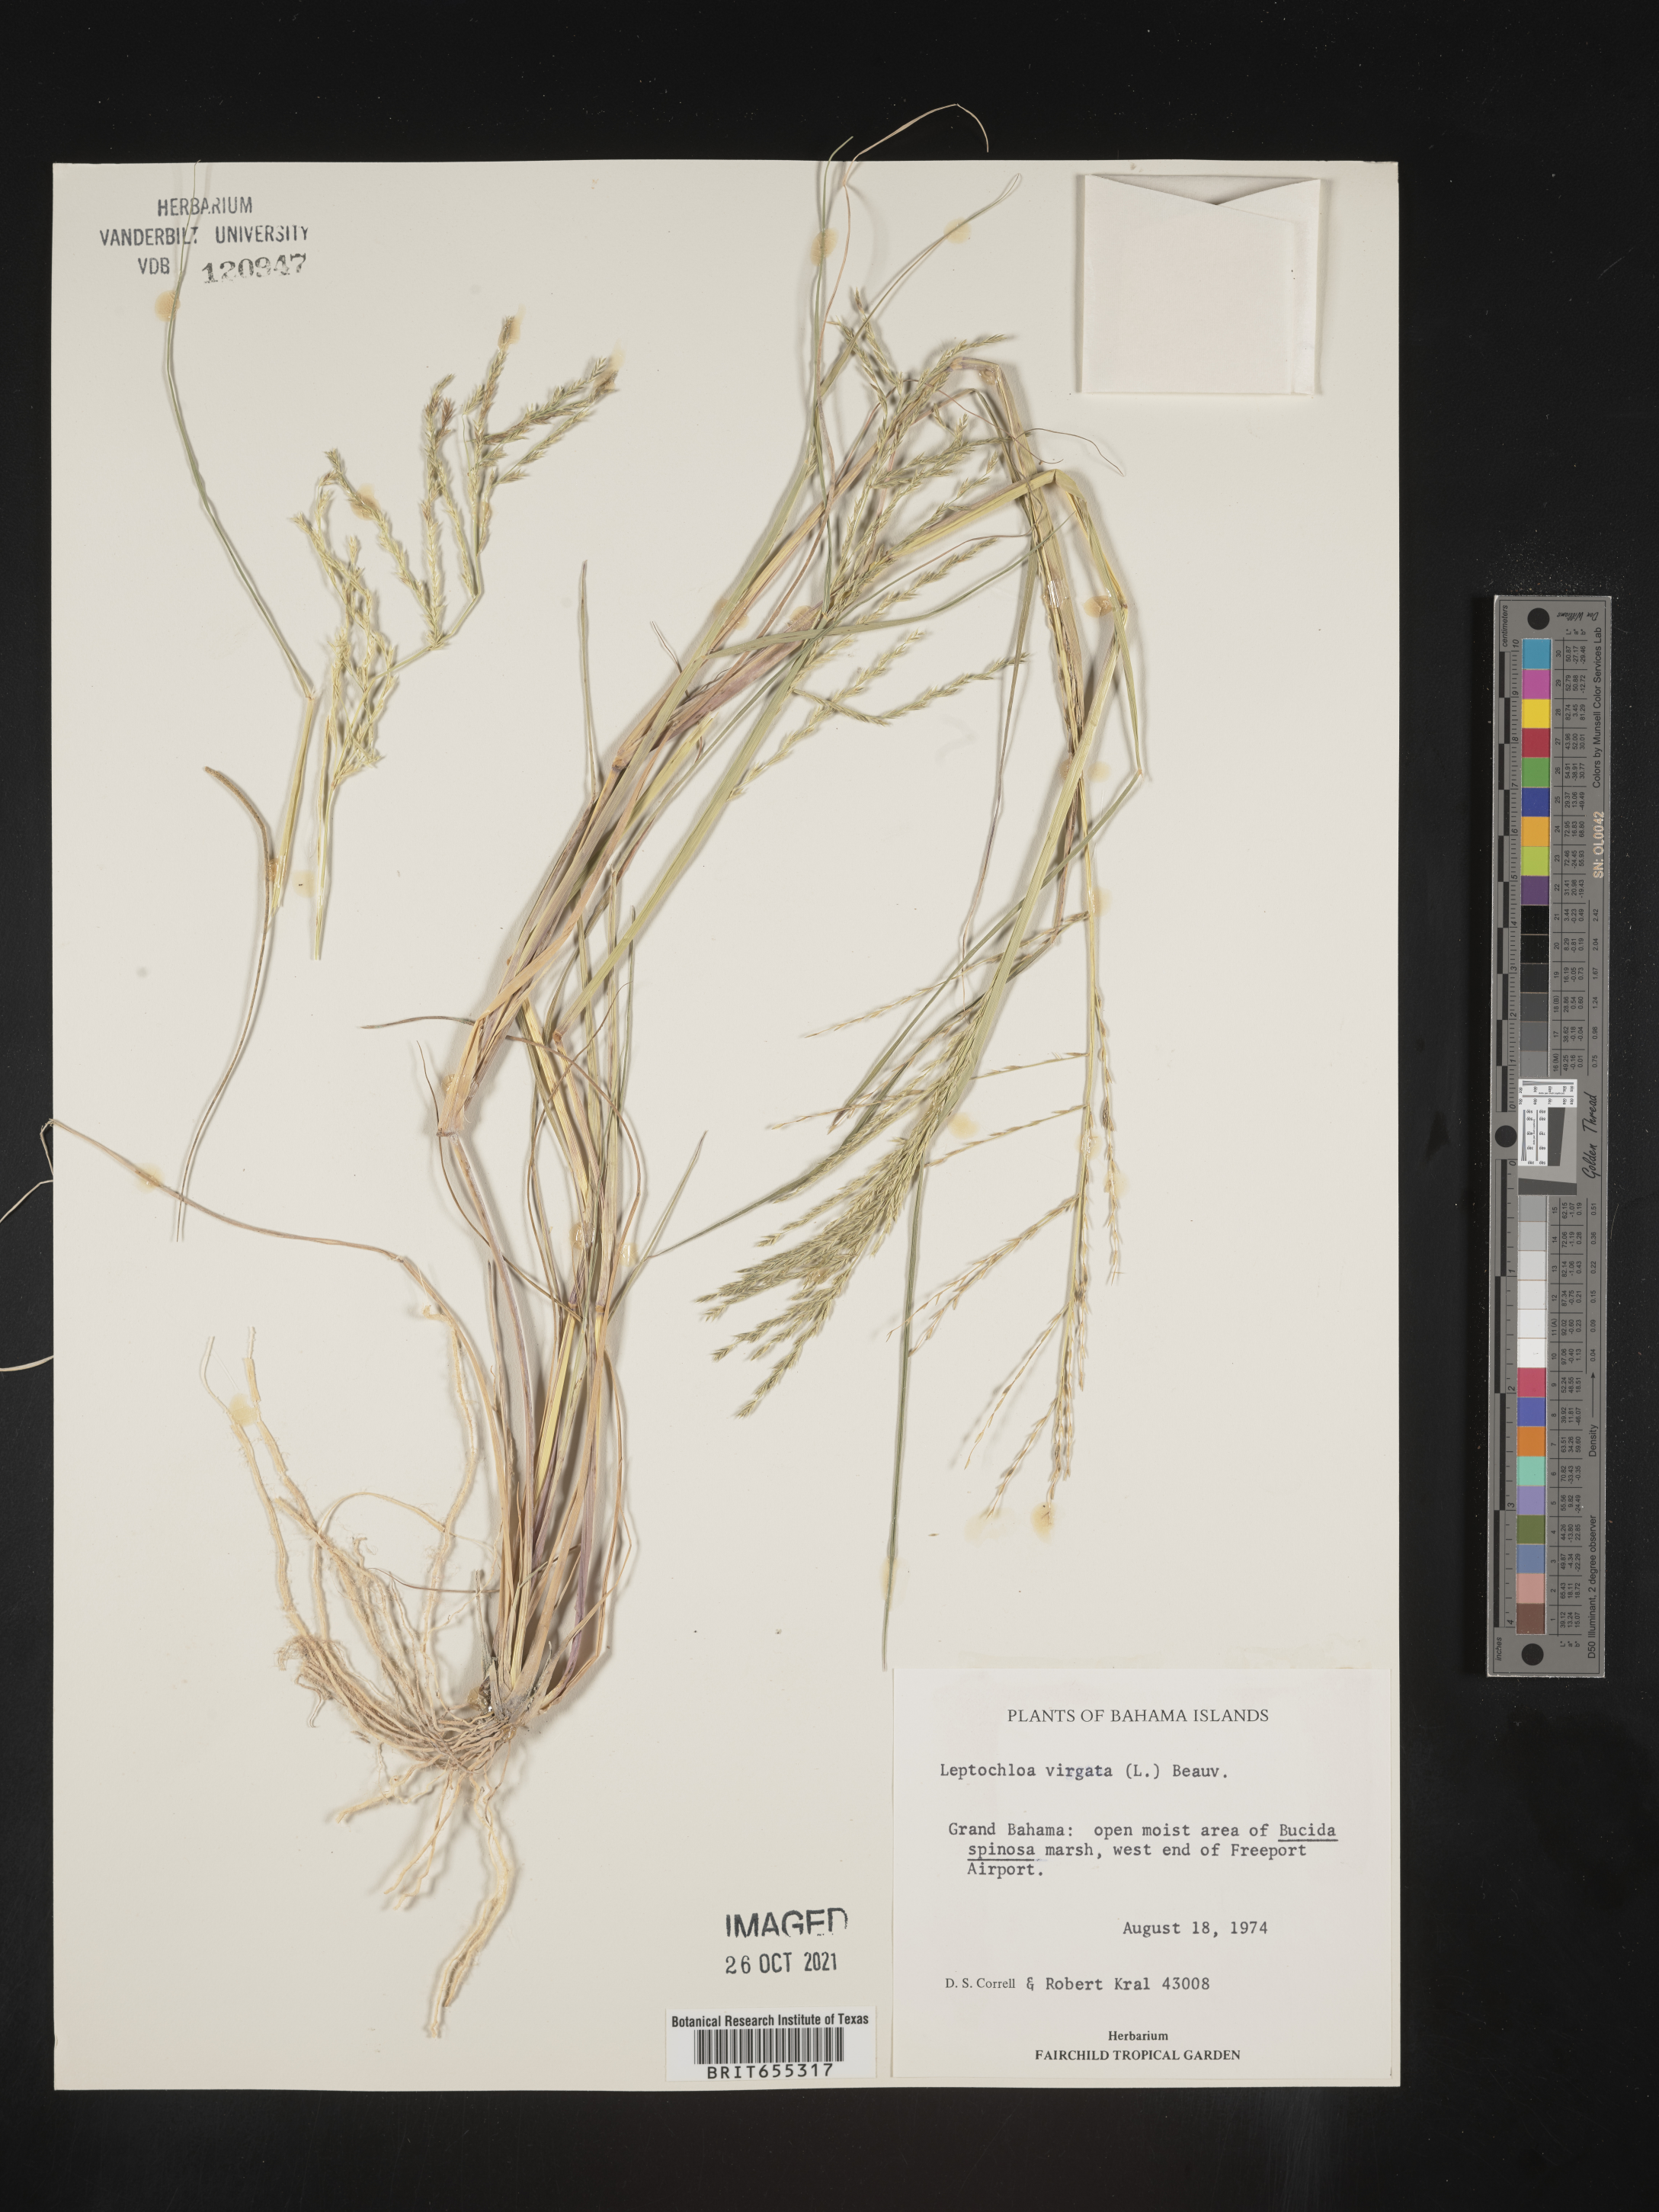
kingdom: Plantae
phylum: Tracheophyta
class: Liliopsida
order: Poales
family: Poaceae
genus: Digitaria
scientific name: Digitaria
